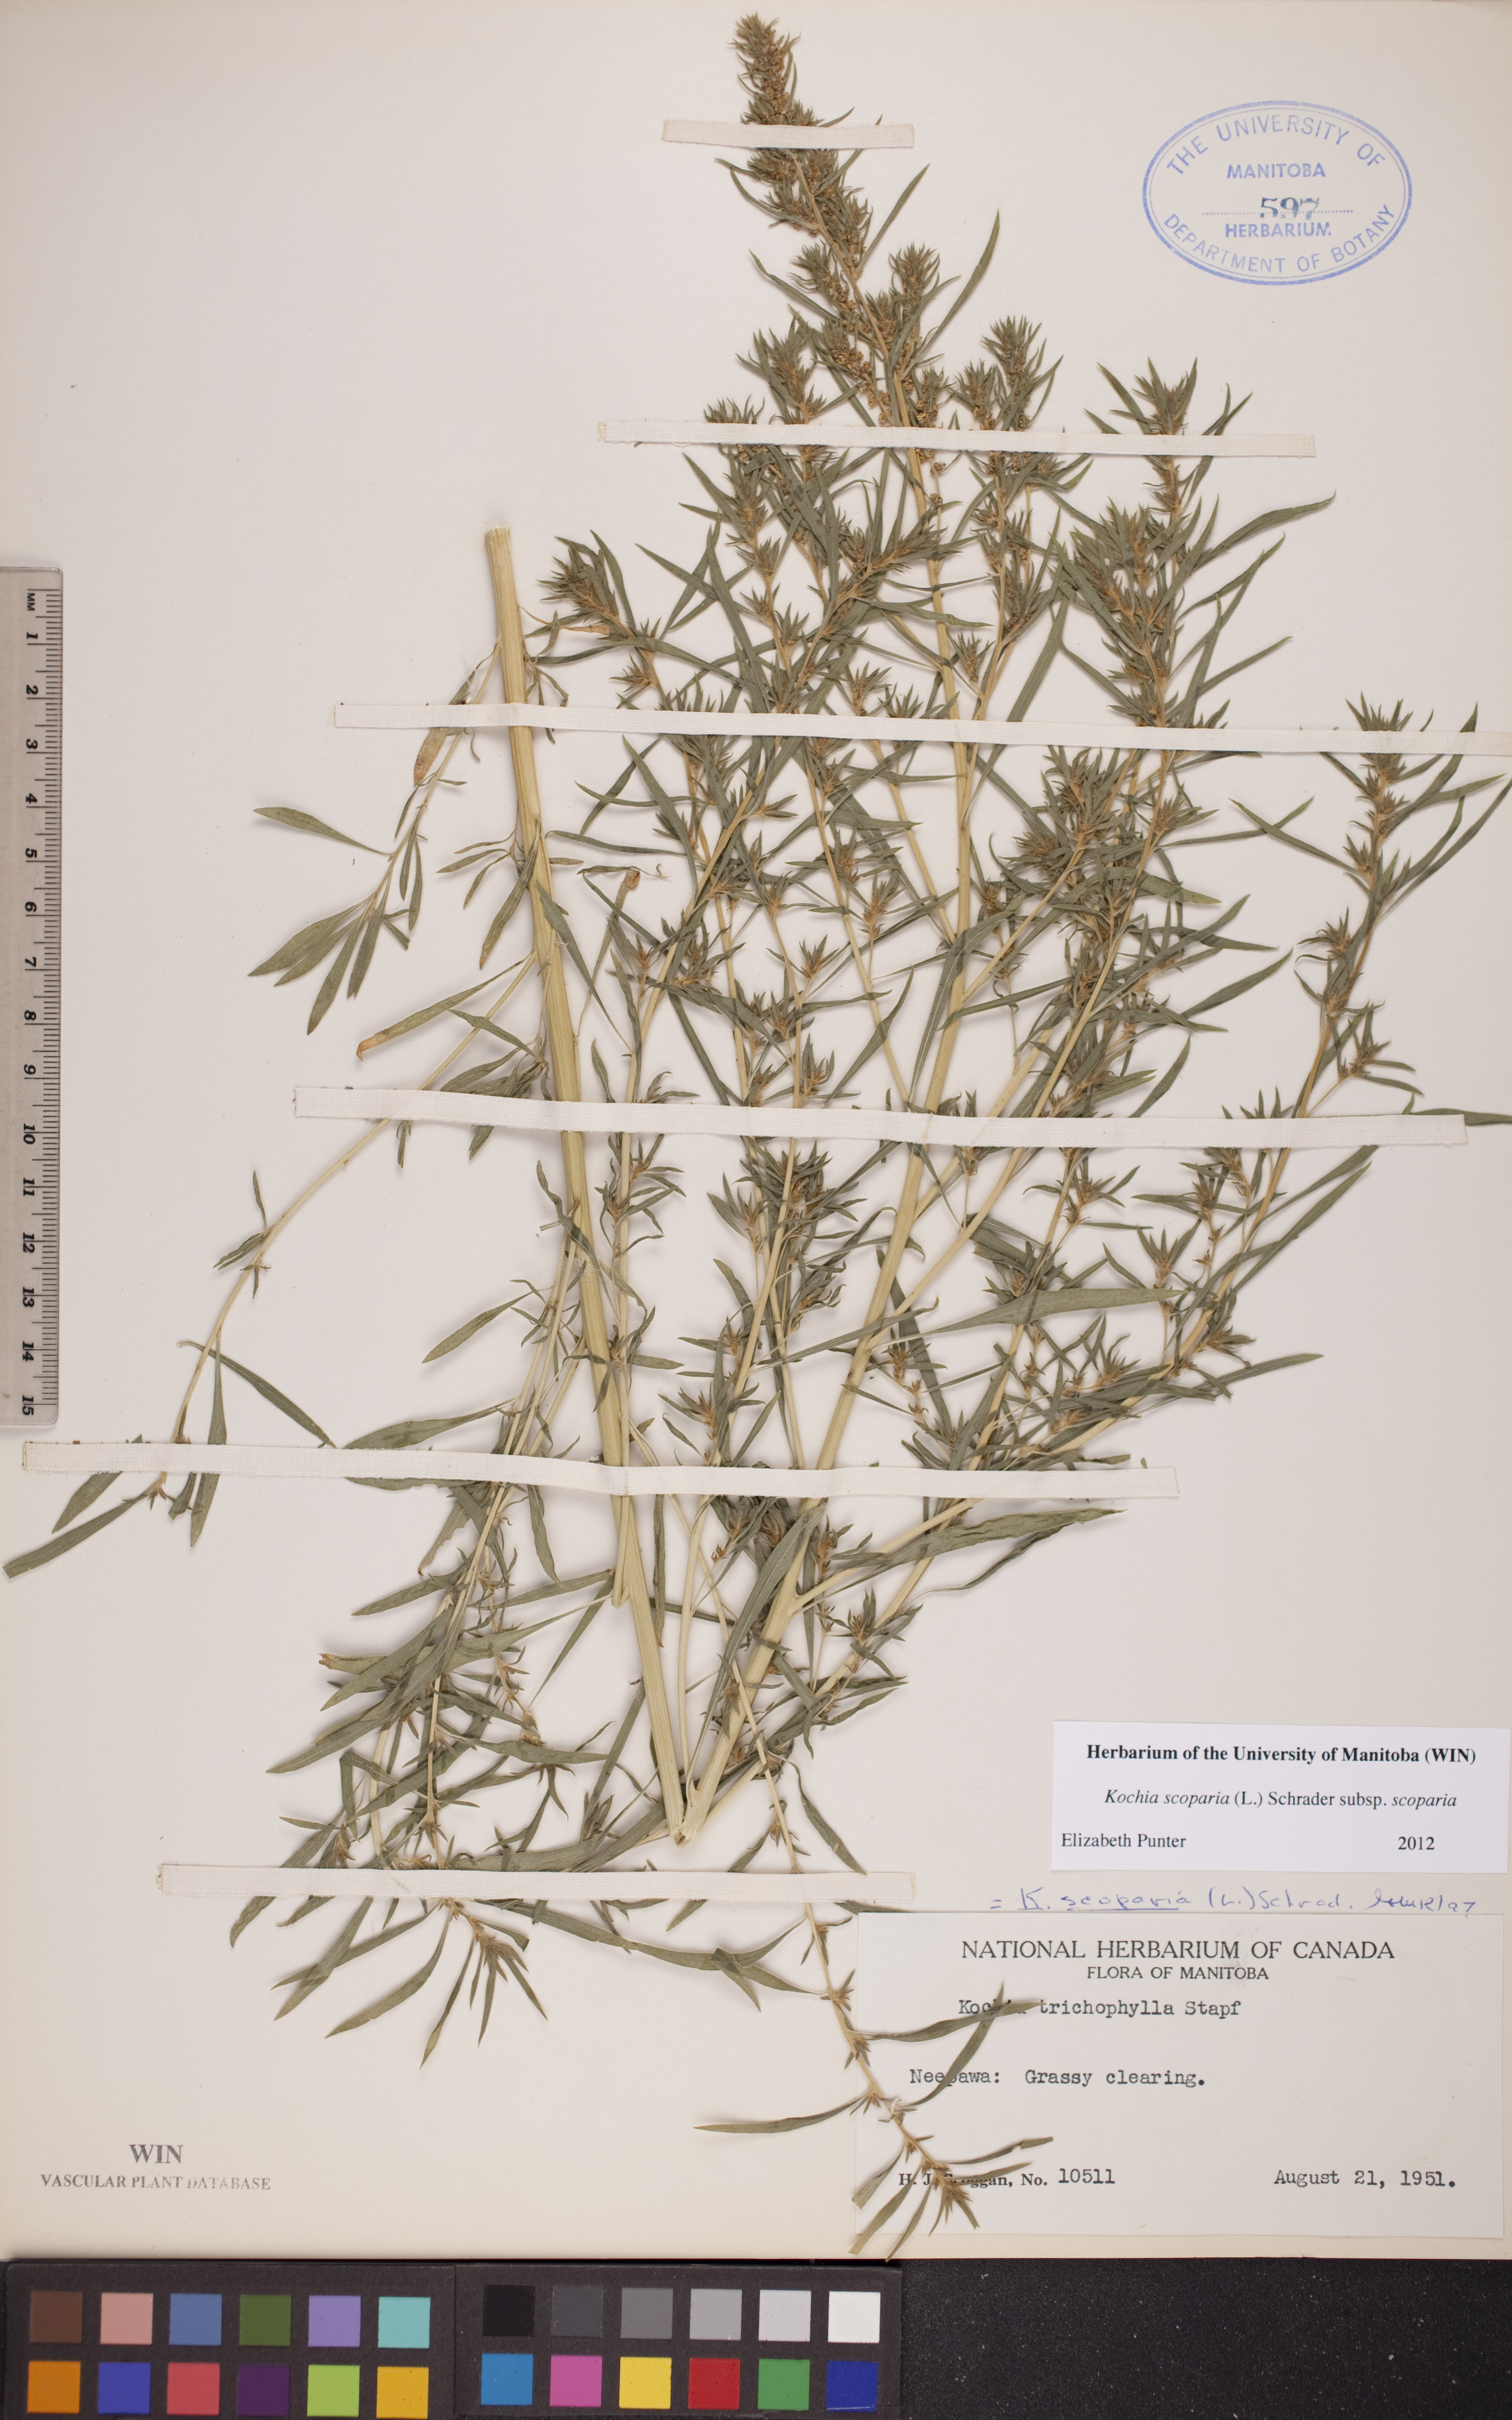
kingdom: Plantae
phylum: Tracheophyta
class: Magnoliopsida
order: Caryophyllales
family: Amaranthaceae
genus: Bassia
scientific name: Bassia scoparia
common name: Belvedere
